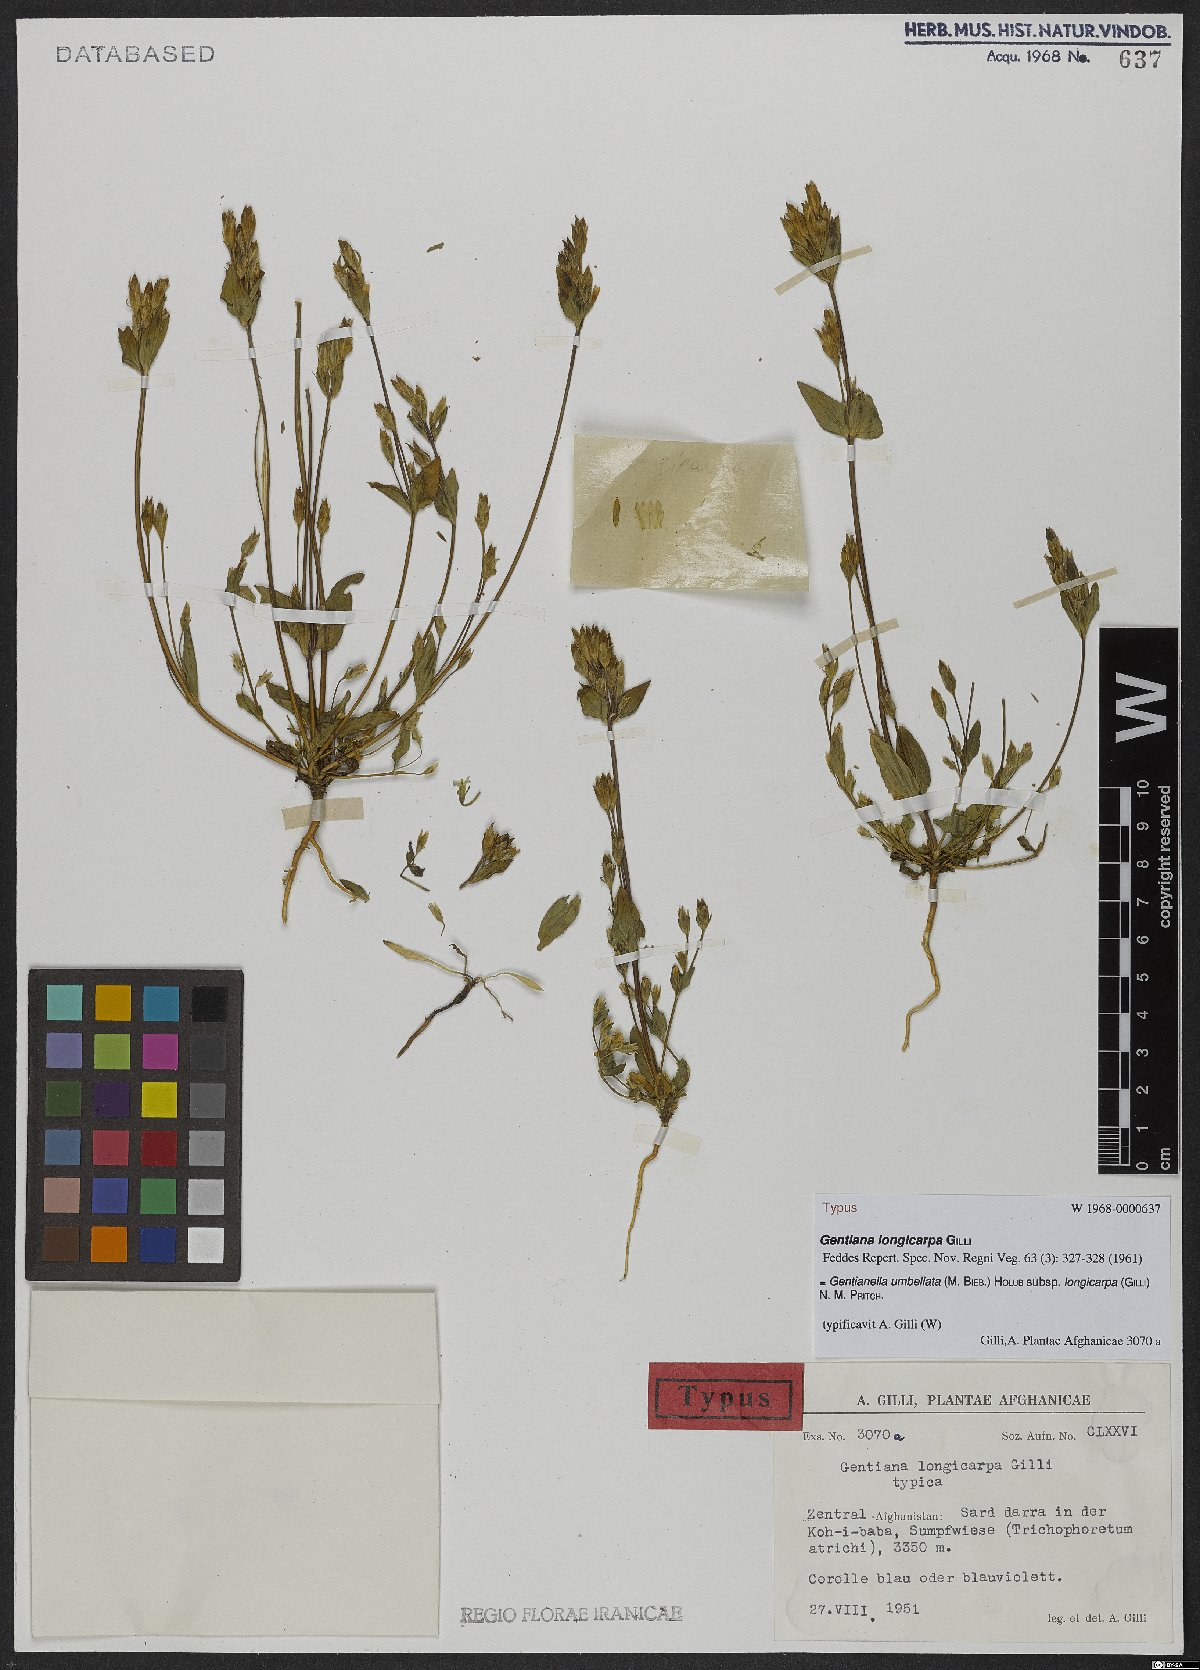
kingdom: Plantae
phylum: Tracheophyta
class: Magnoliopsida
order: Gentianales
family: Gentianaceae
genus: Gentianella
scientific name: Gentianella umbellata
